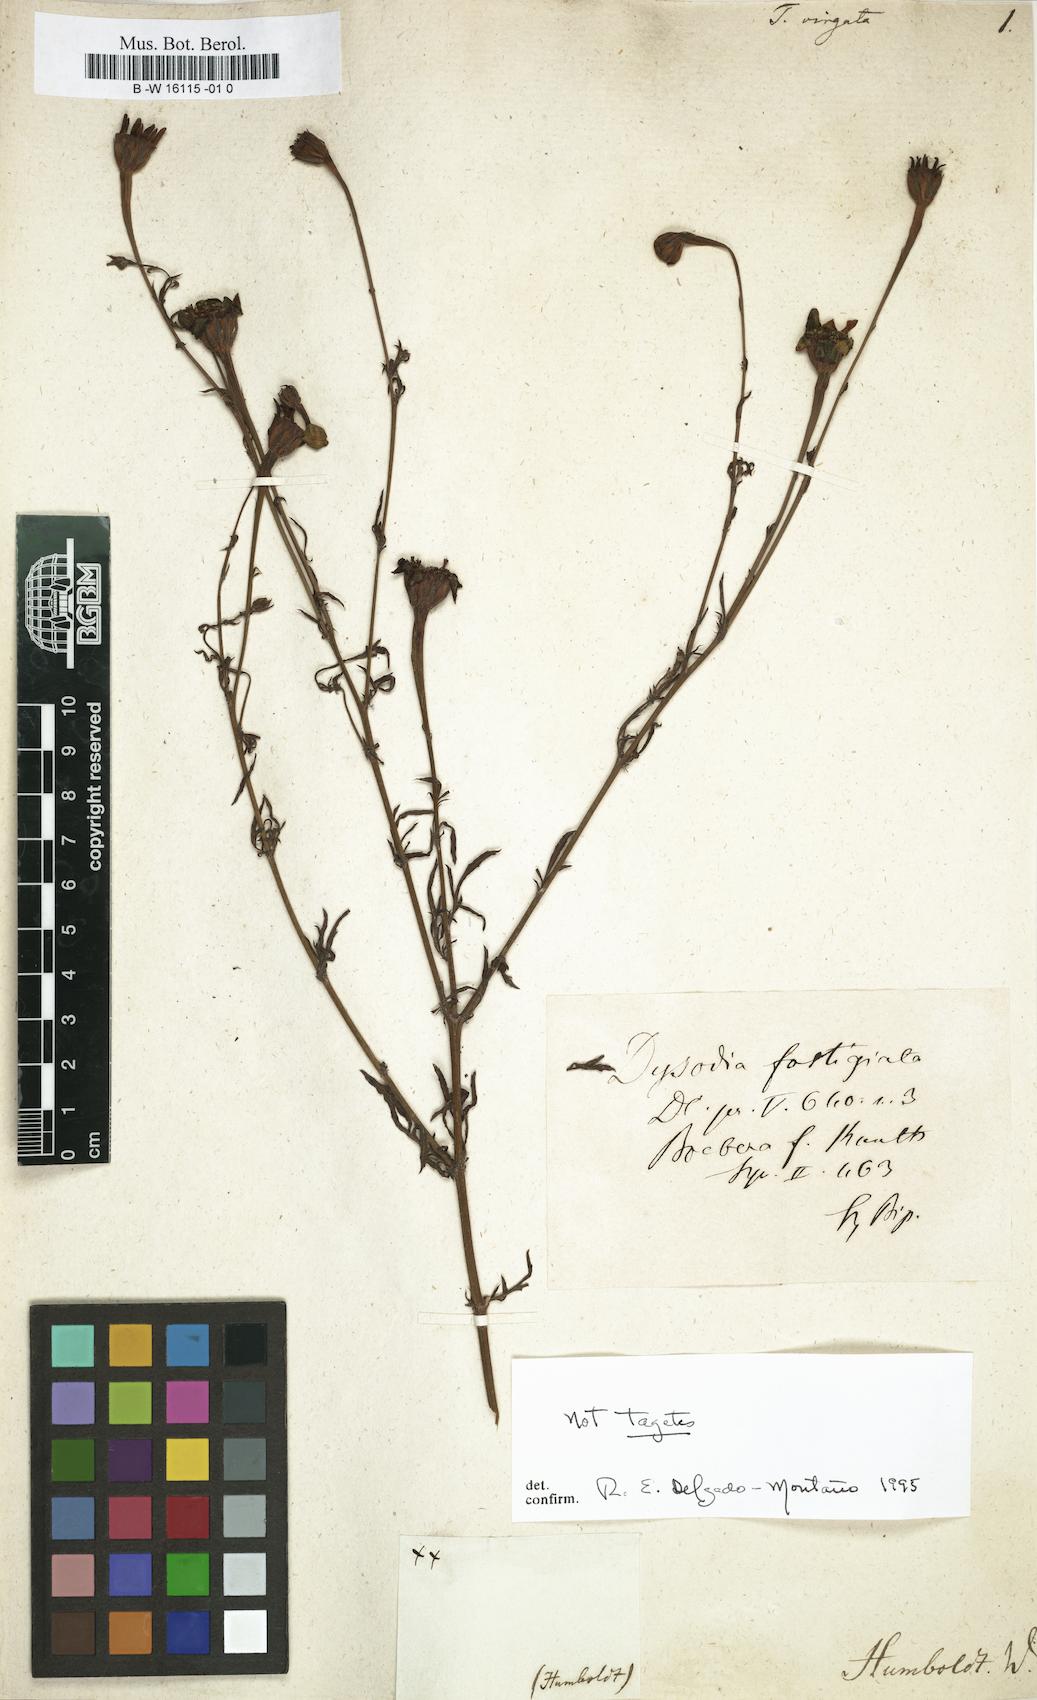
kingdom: Plantae
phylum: Tracheophyta
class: Magnoliopsida
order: Asterales
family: Asteraceae
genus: Tagetes
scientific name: Tagetes
